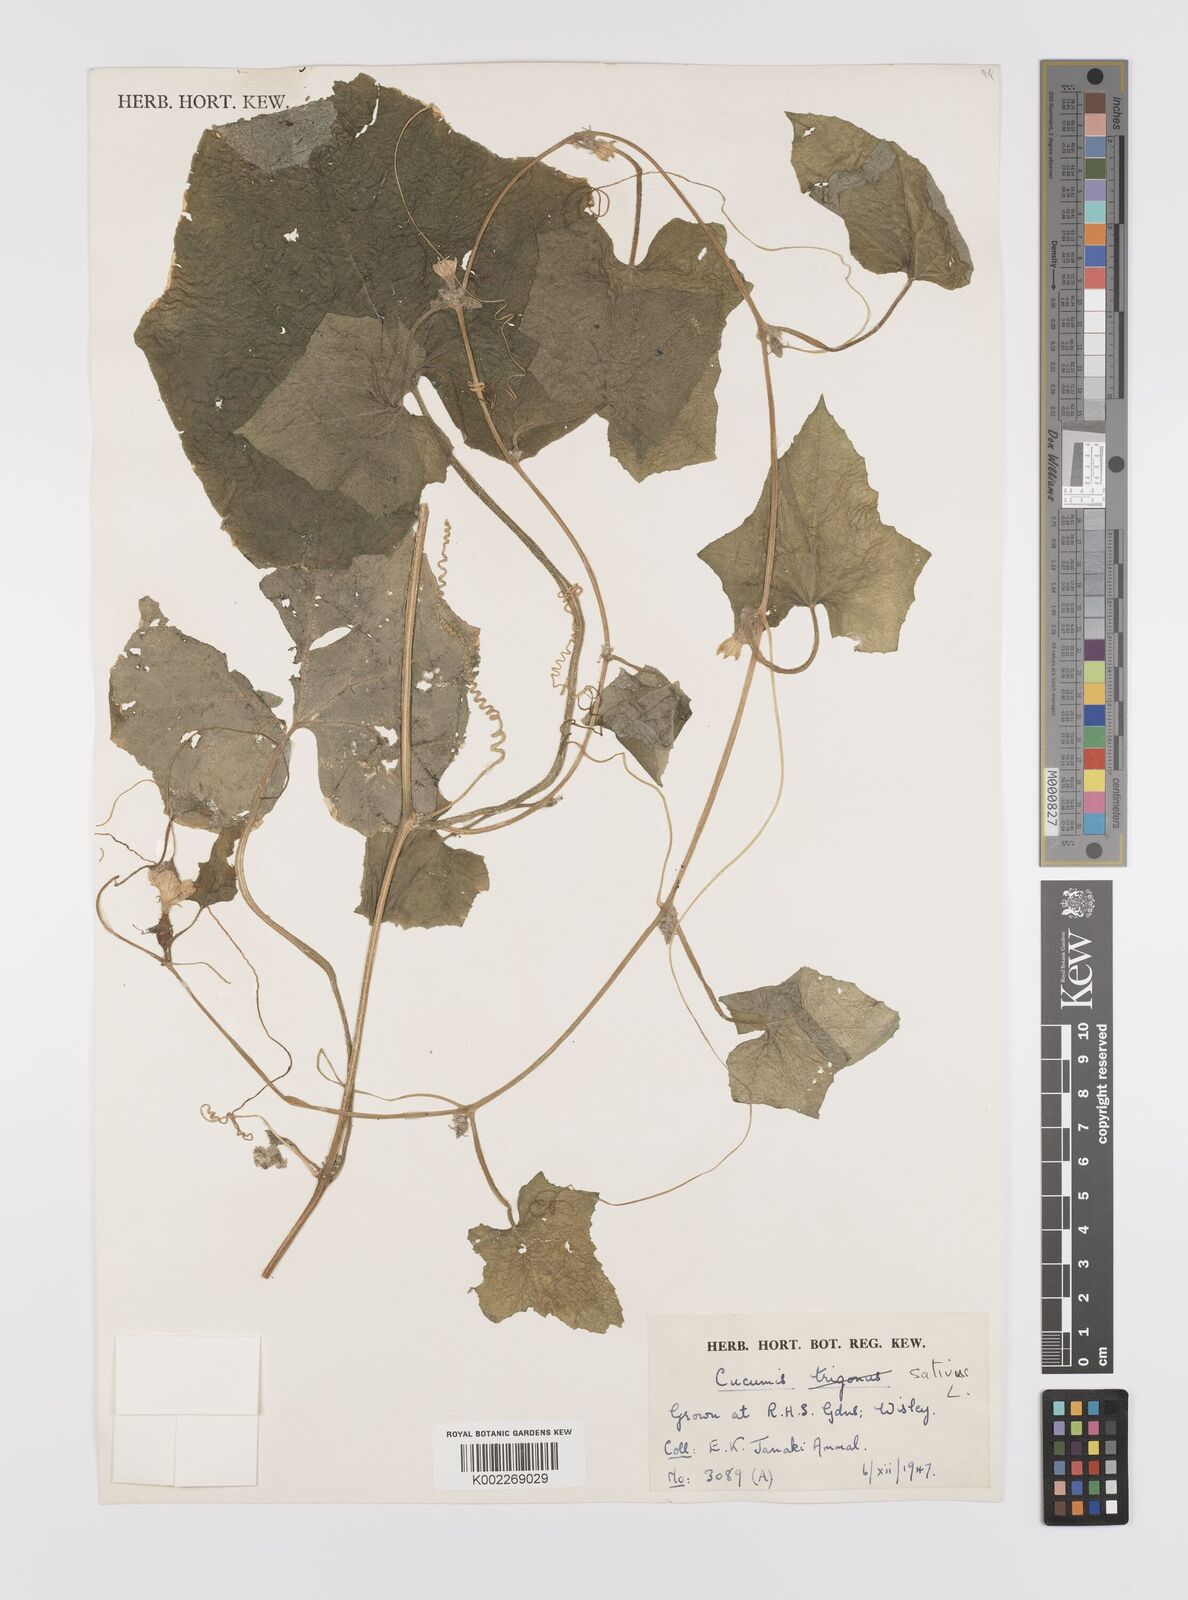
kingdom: Plantae
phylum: Tracheophyta
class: Magnoliopsida
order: Cucurbitales
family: Cucurbitaceae
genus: Cucumis
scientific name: Cucumis sativus
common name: Cucumber
